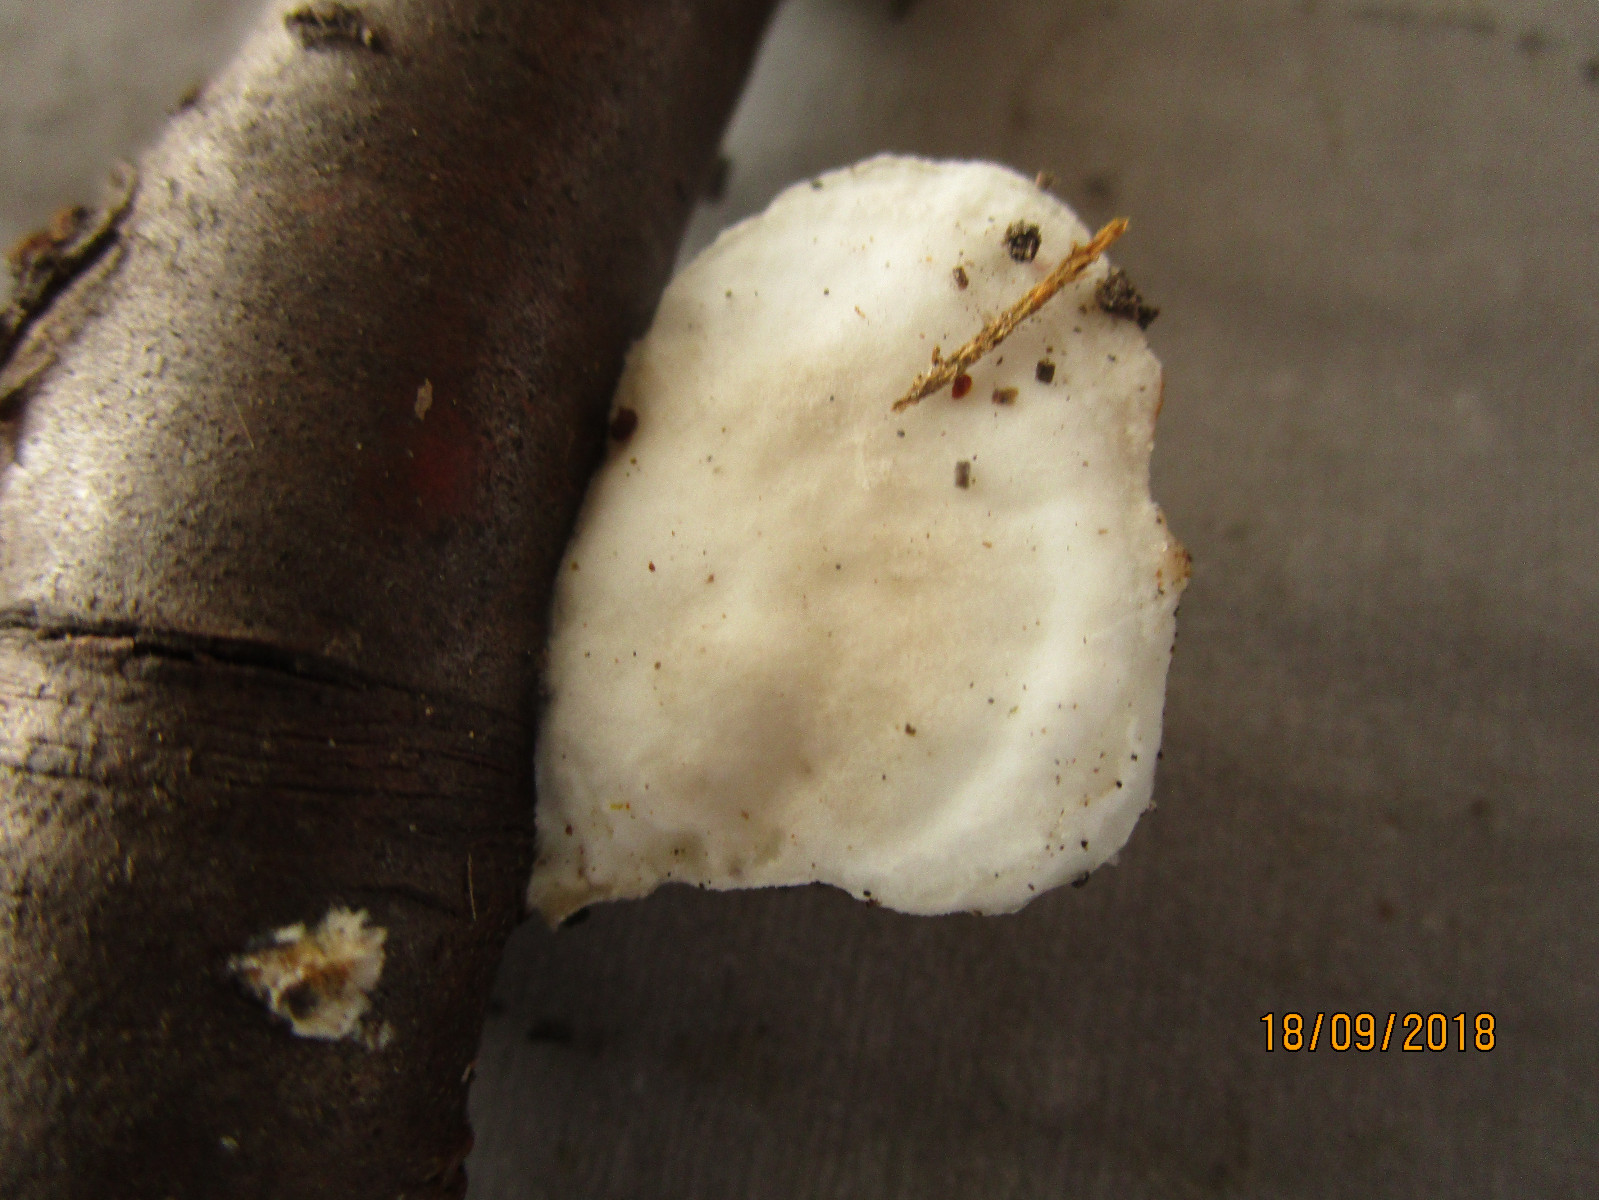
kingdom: Fungi
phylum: Basidiomycota
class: Agaricomycetes
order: Polyporales
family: Polyporaceae
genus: Trametes
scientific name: Trametes hirsuta
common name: håret læderporesvamp
